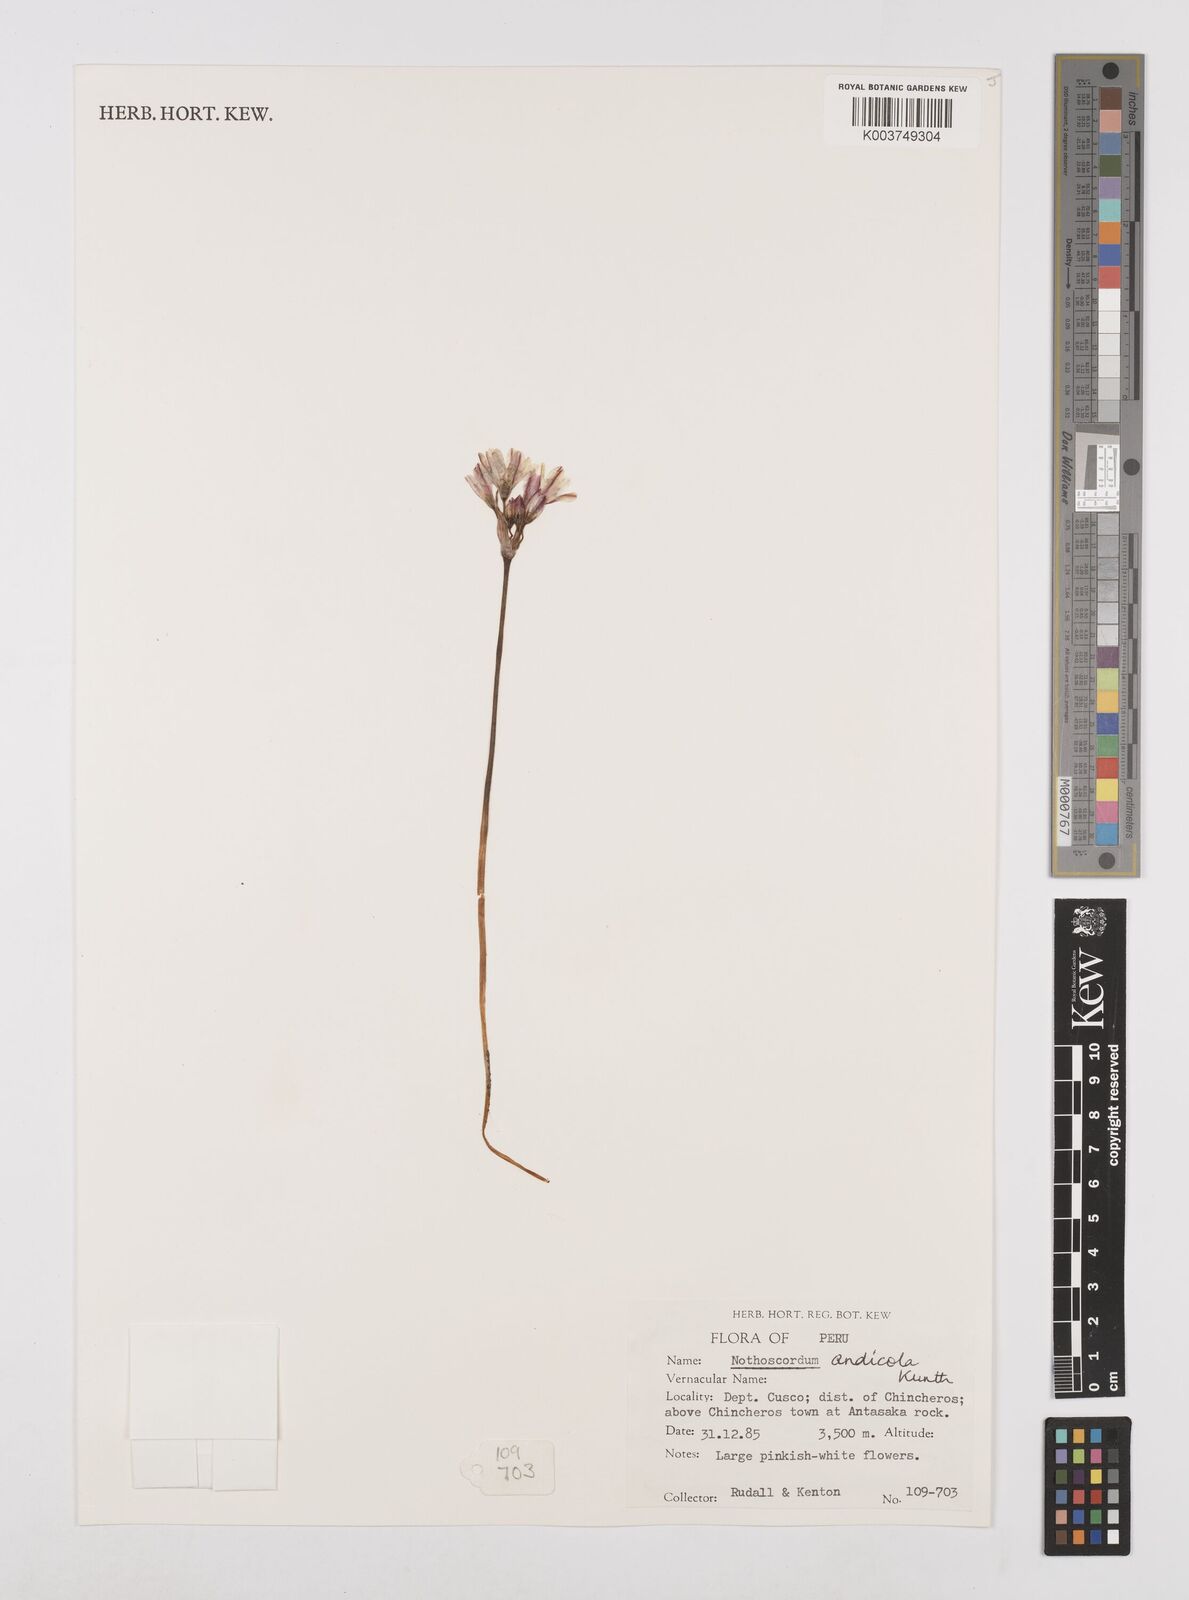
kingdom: Plantae
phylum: Tracheophyta
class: Liliopsida
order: Asparagales
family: Amaryllidaceae
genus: Nothoscordum
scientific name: Nothoscordum andicola
